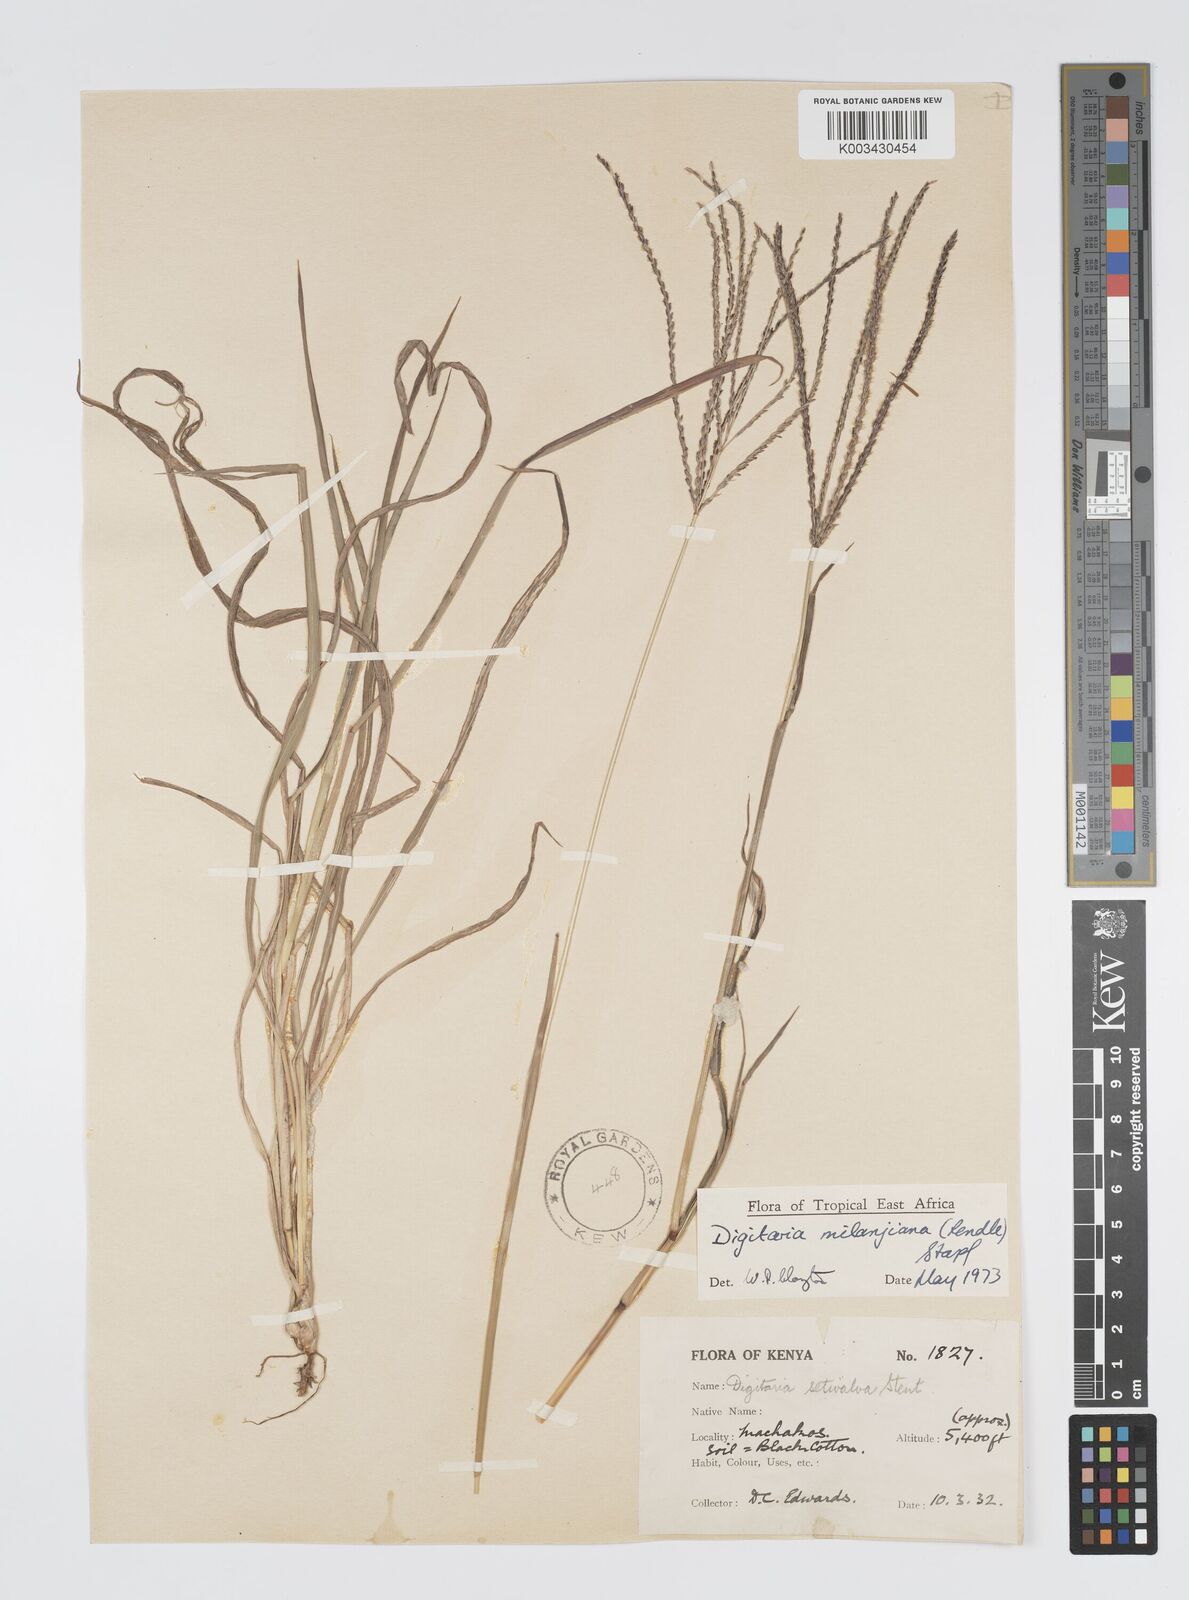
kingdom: Plantae
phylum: Tracheophyta
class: Liliopsida
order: Poales
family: Poaceae
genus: Digitaria
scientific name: Digitaria milanjiana
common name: Madagascar crabgrass
